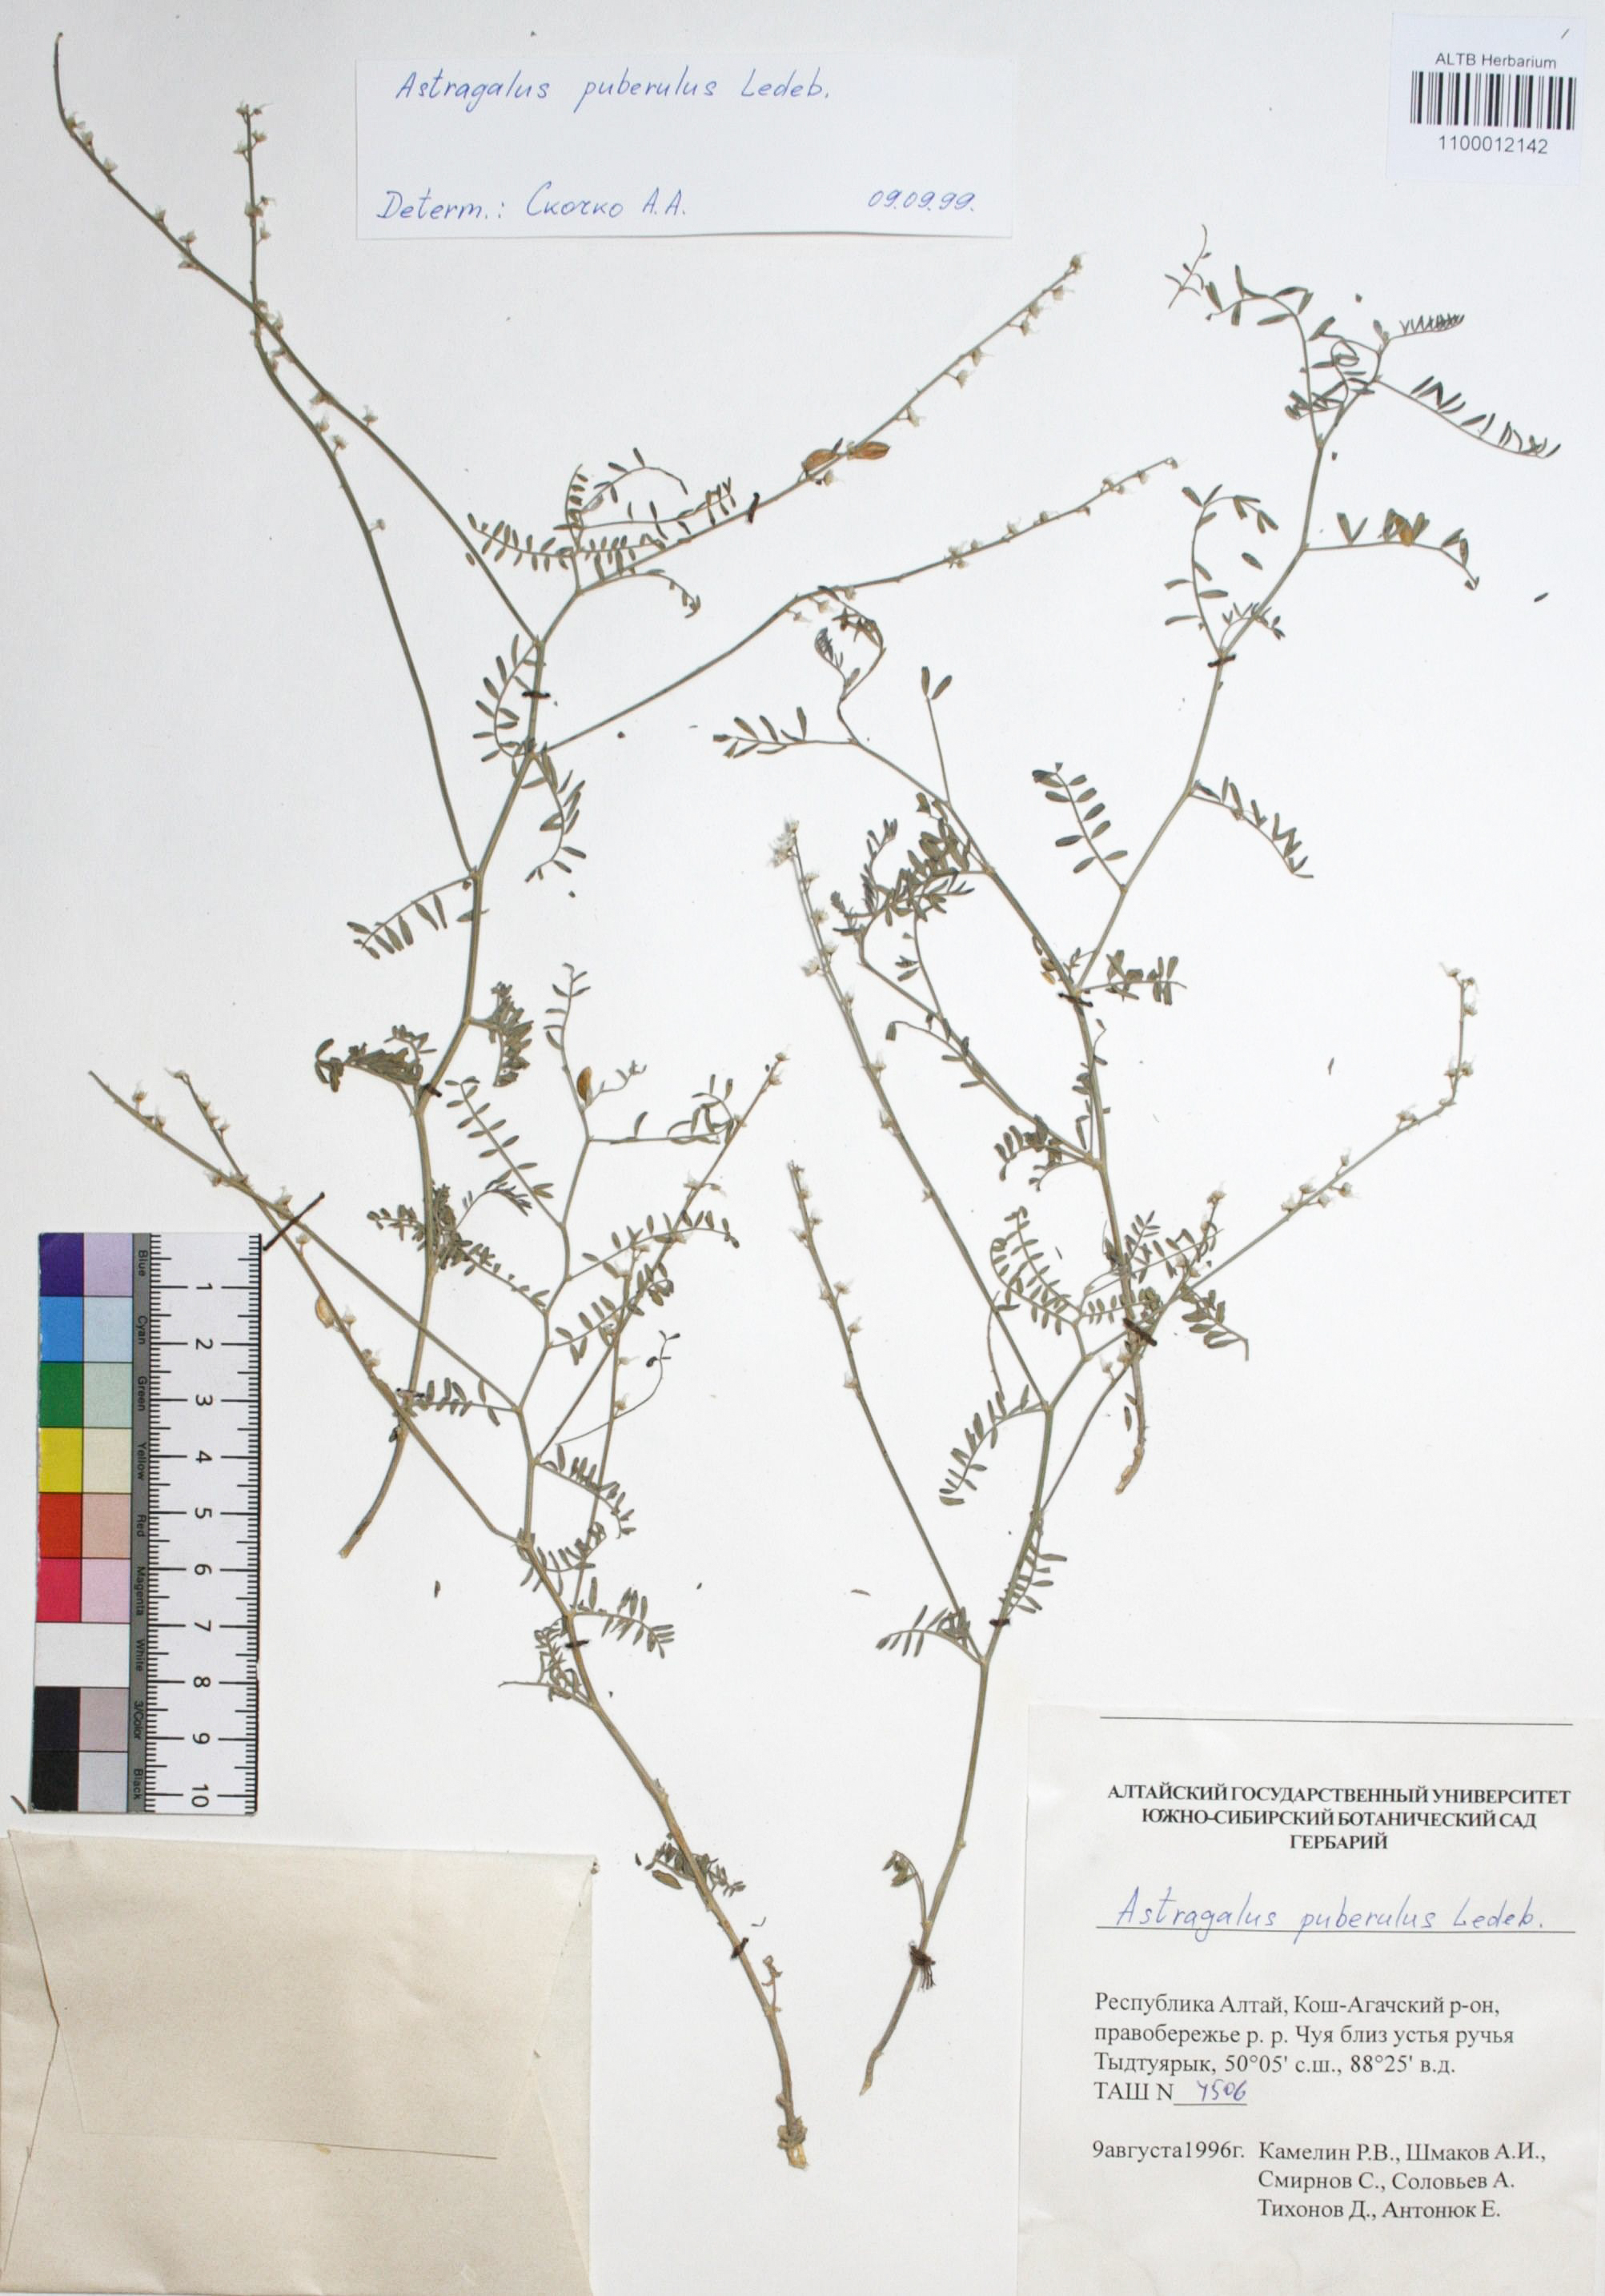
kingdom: Plantae
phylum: Tracheophyta
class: Magnoliopsida
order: Fabales
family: Fabaceae
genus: Astragalus
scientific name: Astragalus puberulus
